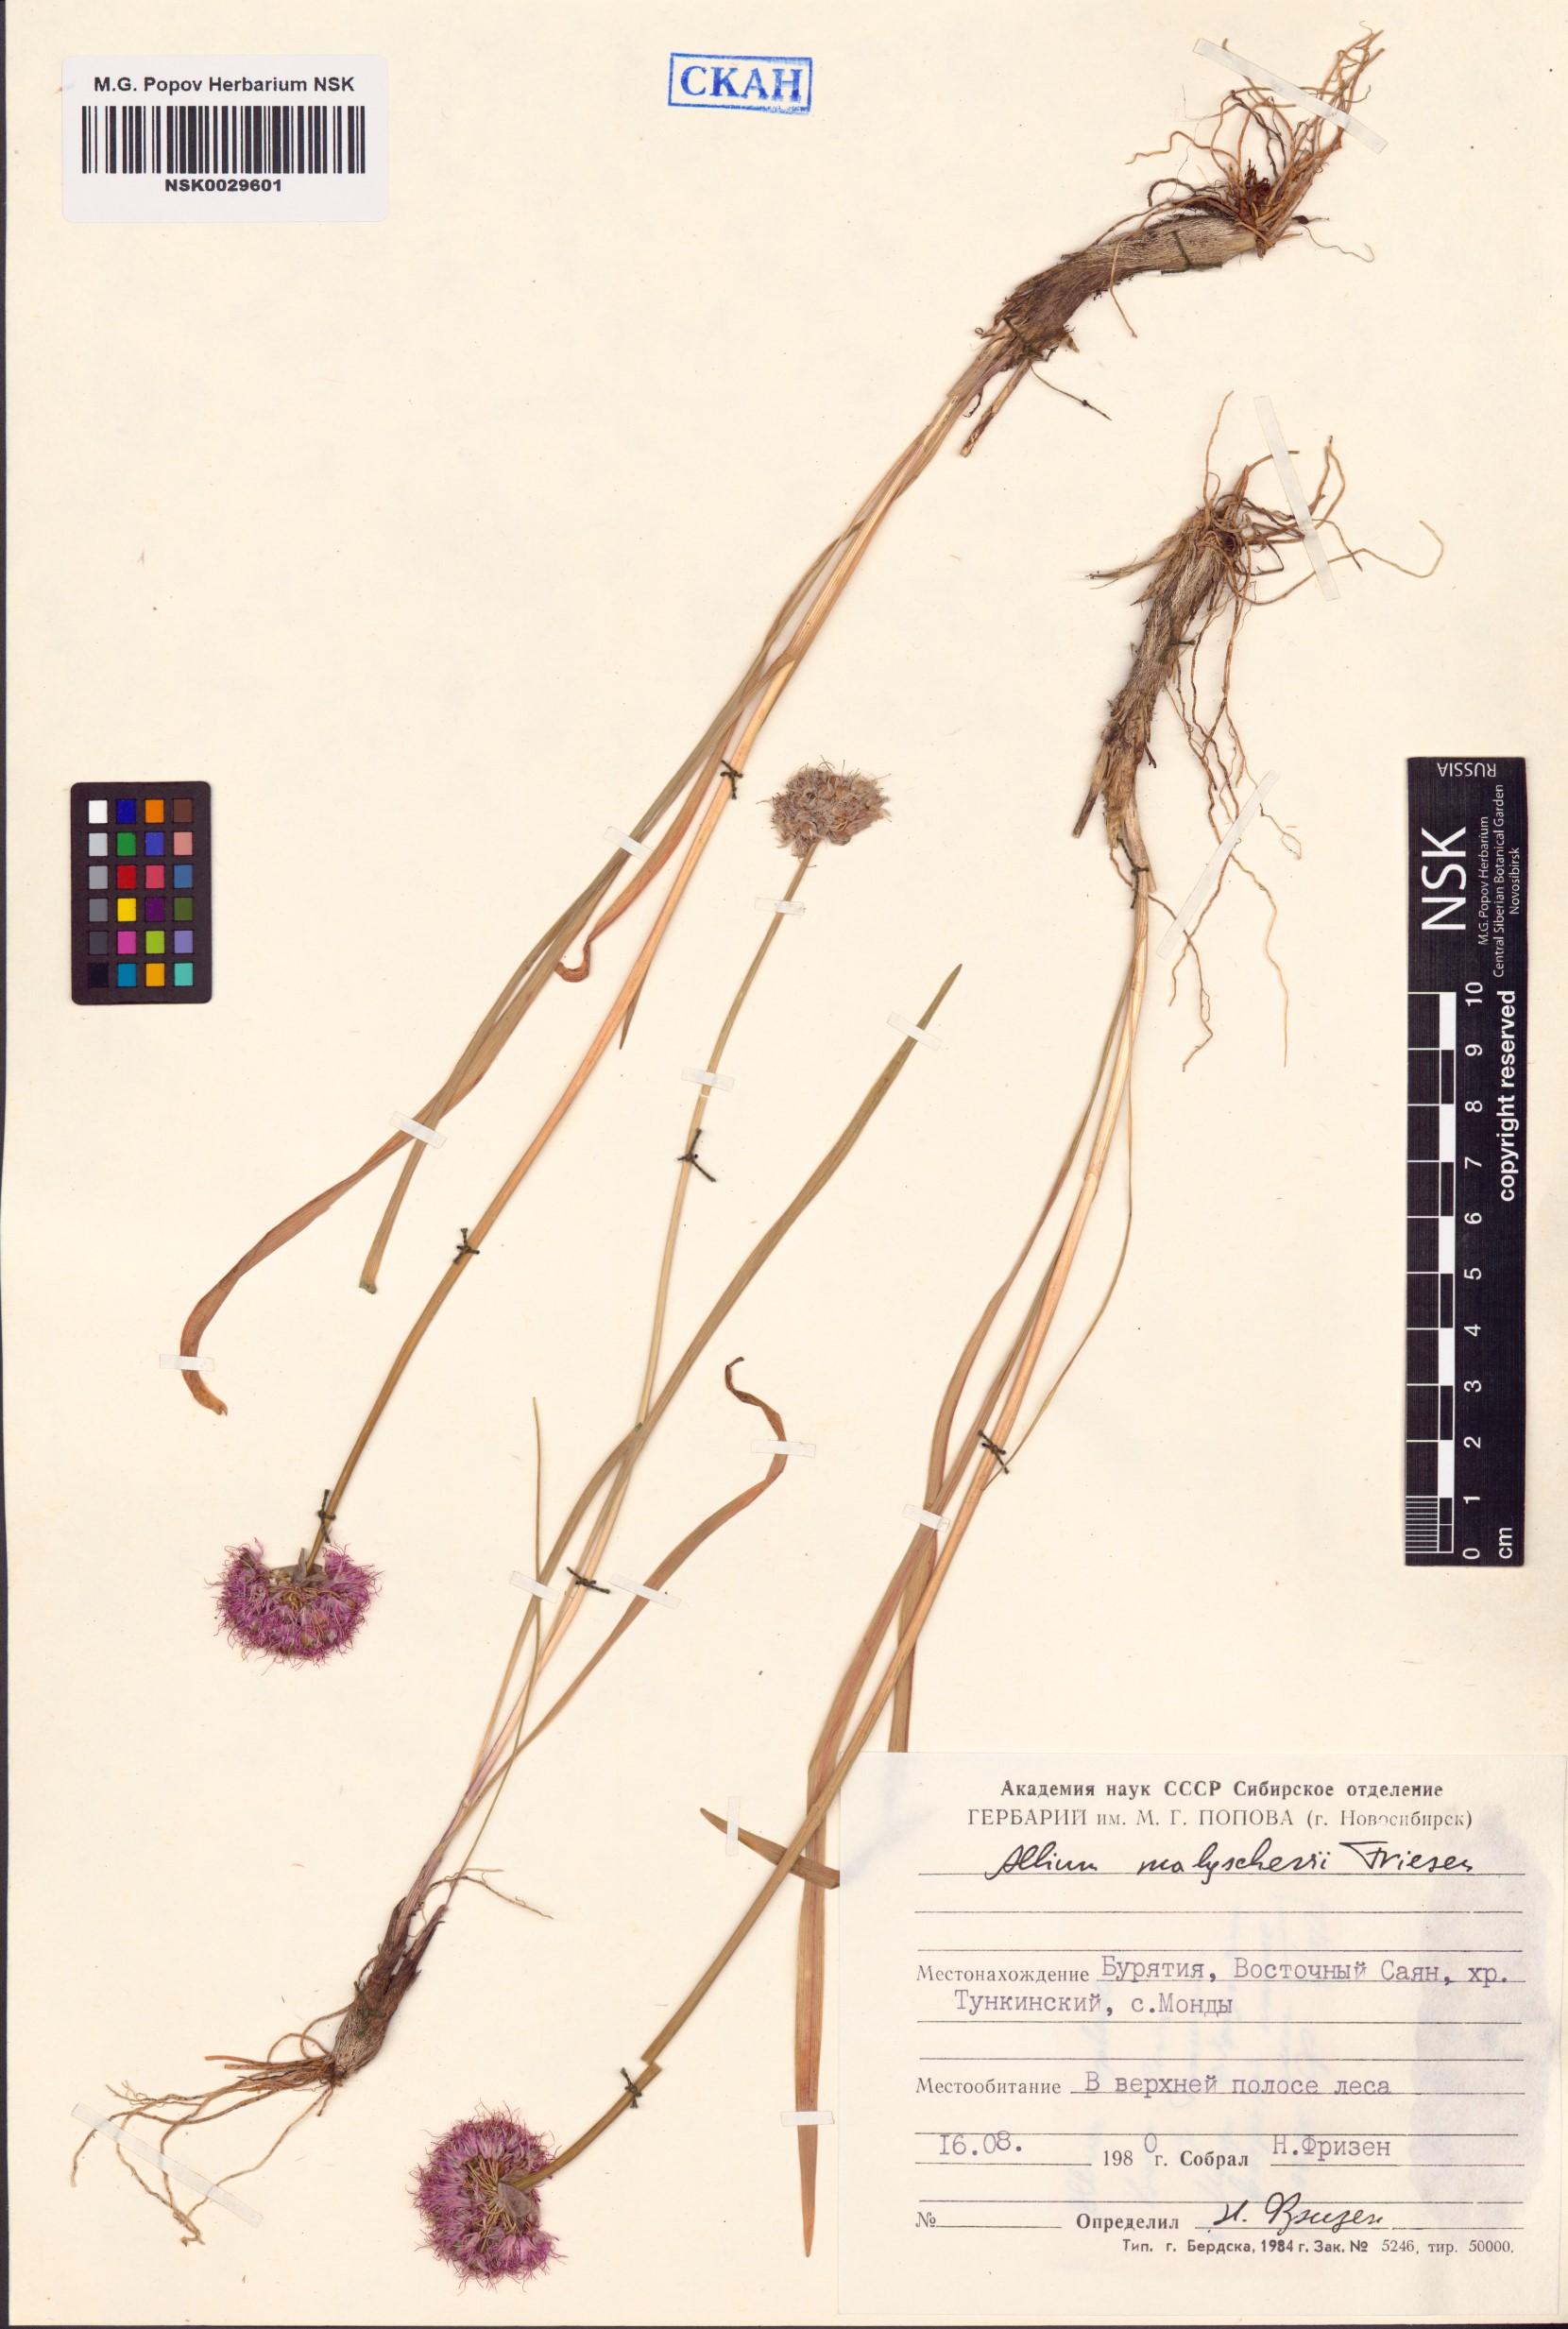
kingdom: Plantae
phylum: Tracheophyta
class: Liliopsida
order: Asparagales
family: Amaryllidaceae
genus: Allium
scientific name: Allium malyschevii
